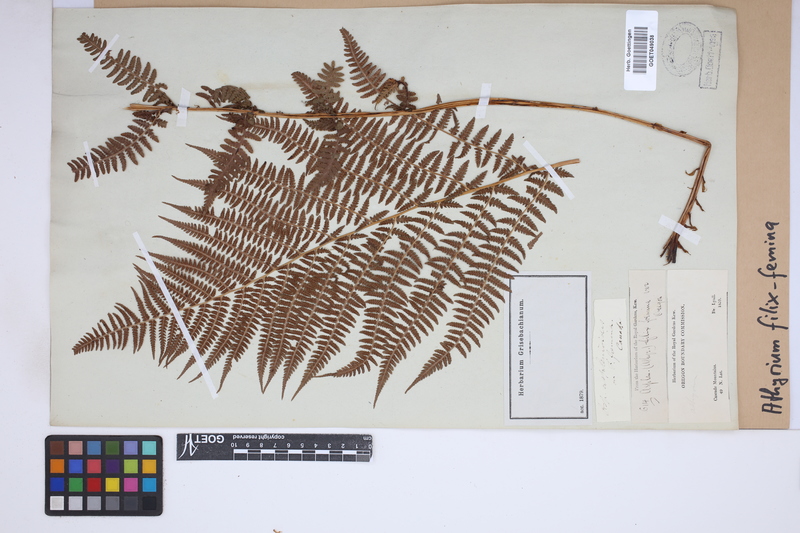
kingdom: Plantae
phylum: Tracheophyta
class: Polypodiopsida
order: Polypodiales
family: Athyriaceae
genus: Athyrium
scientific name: Athyrium filix-femina
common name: Lady fern
